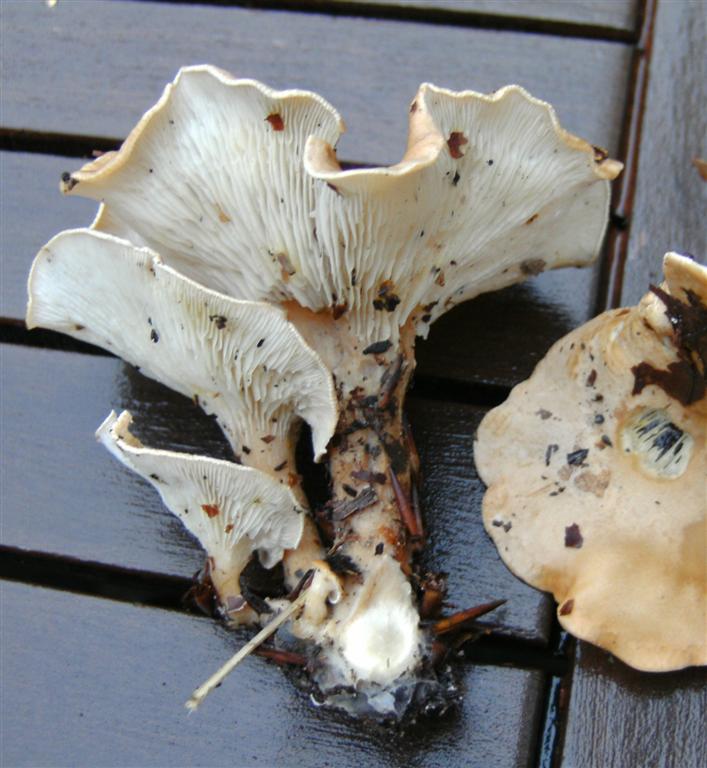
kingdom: Fungi
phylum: Basidiomycota
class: Agaricomycetes
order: Agaricales
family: Tricholomataceae
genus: Infundibulicybe
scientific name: Infundibulicybe gibba
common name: almindelig tragthat
